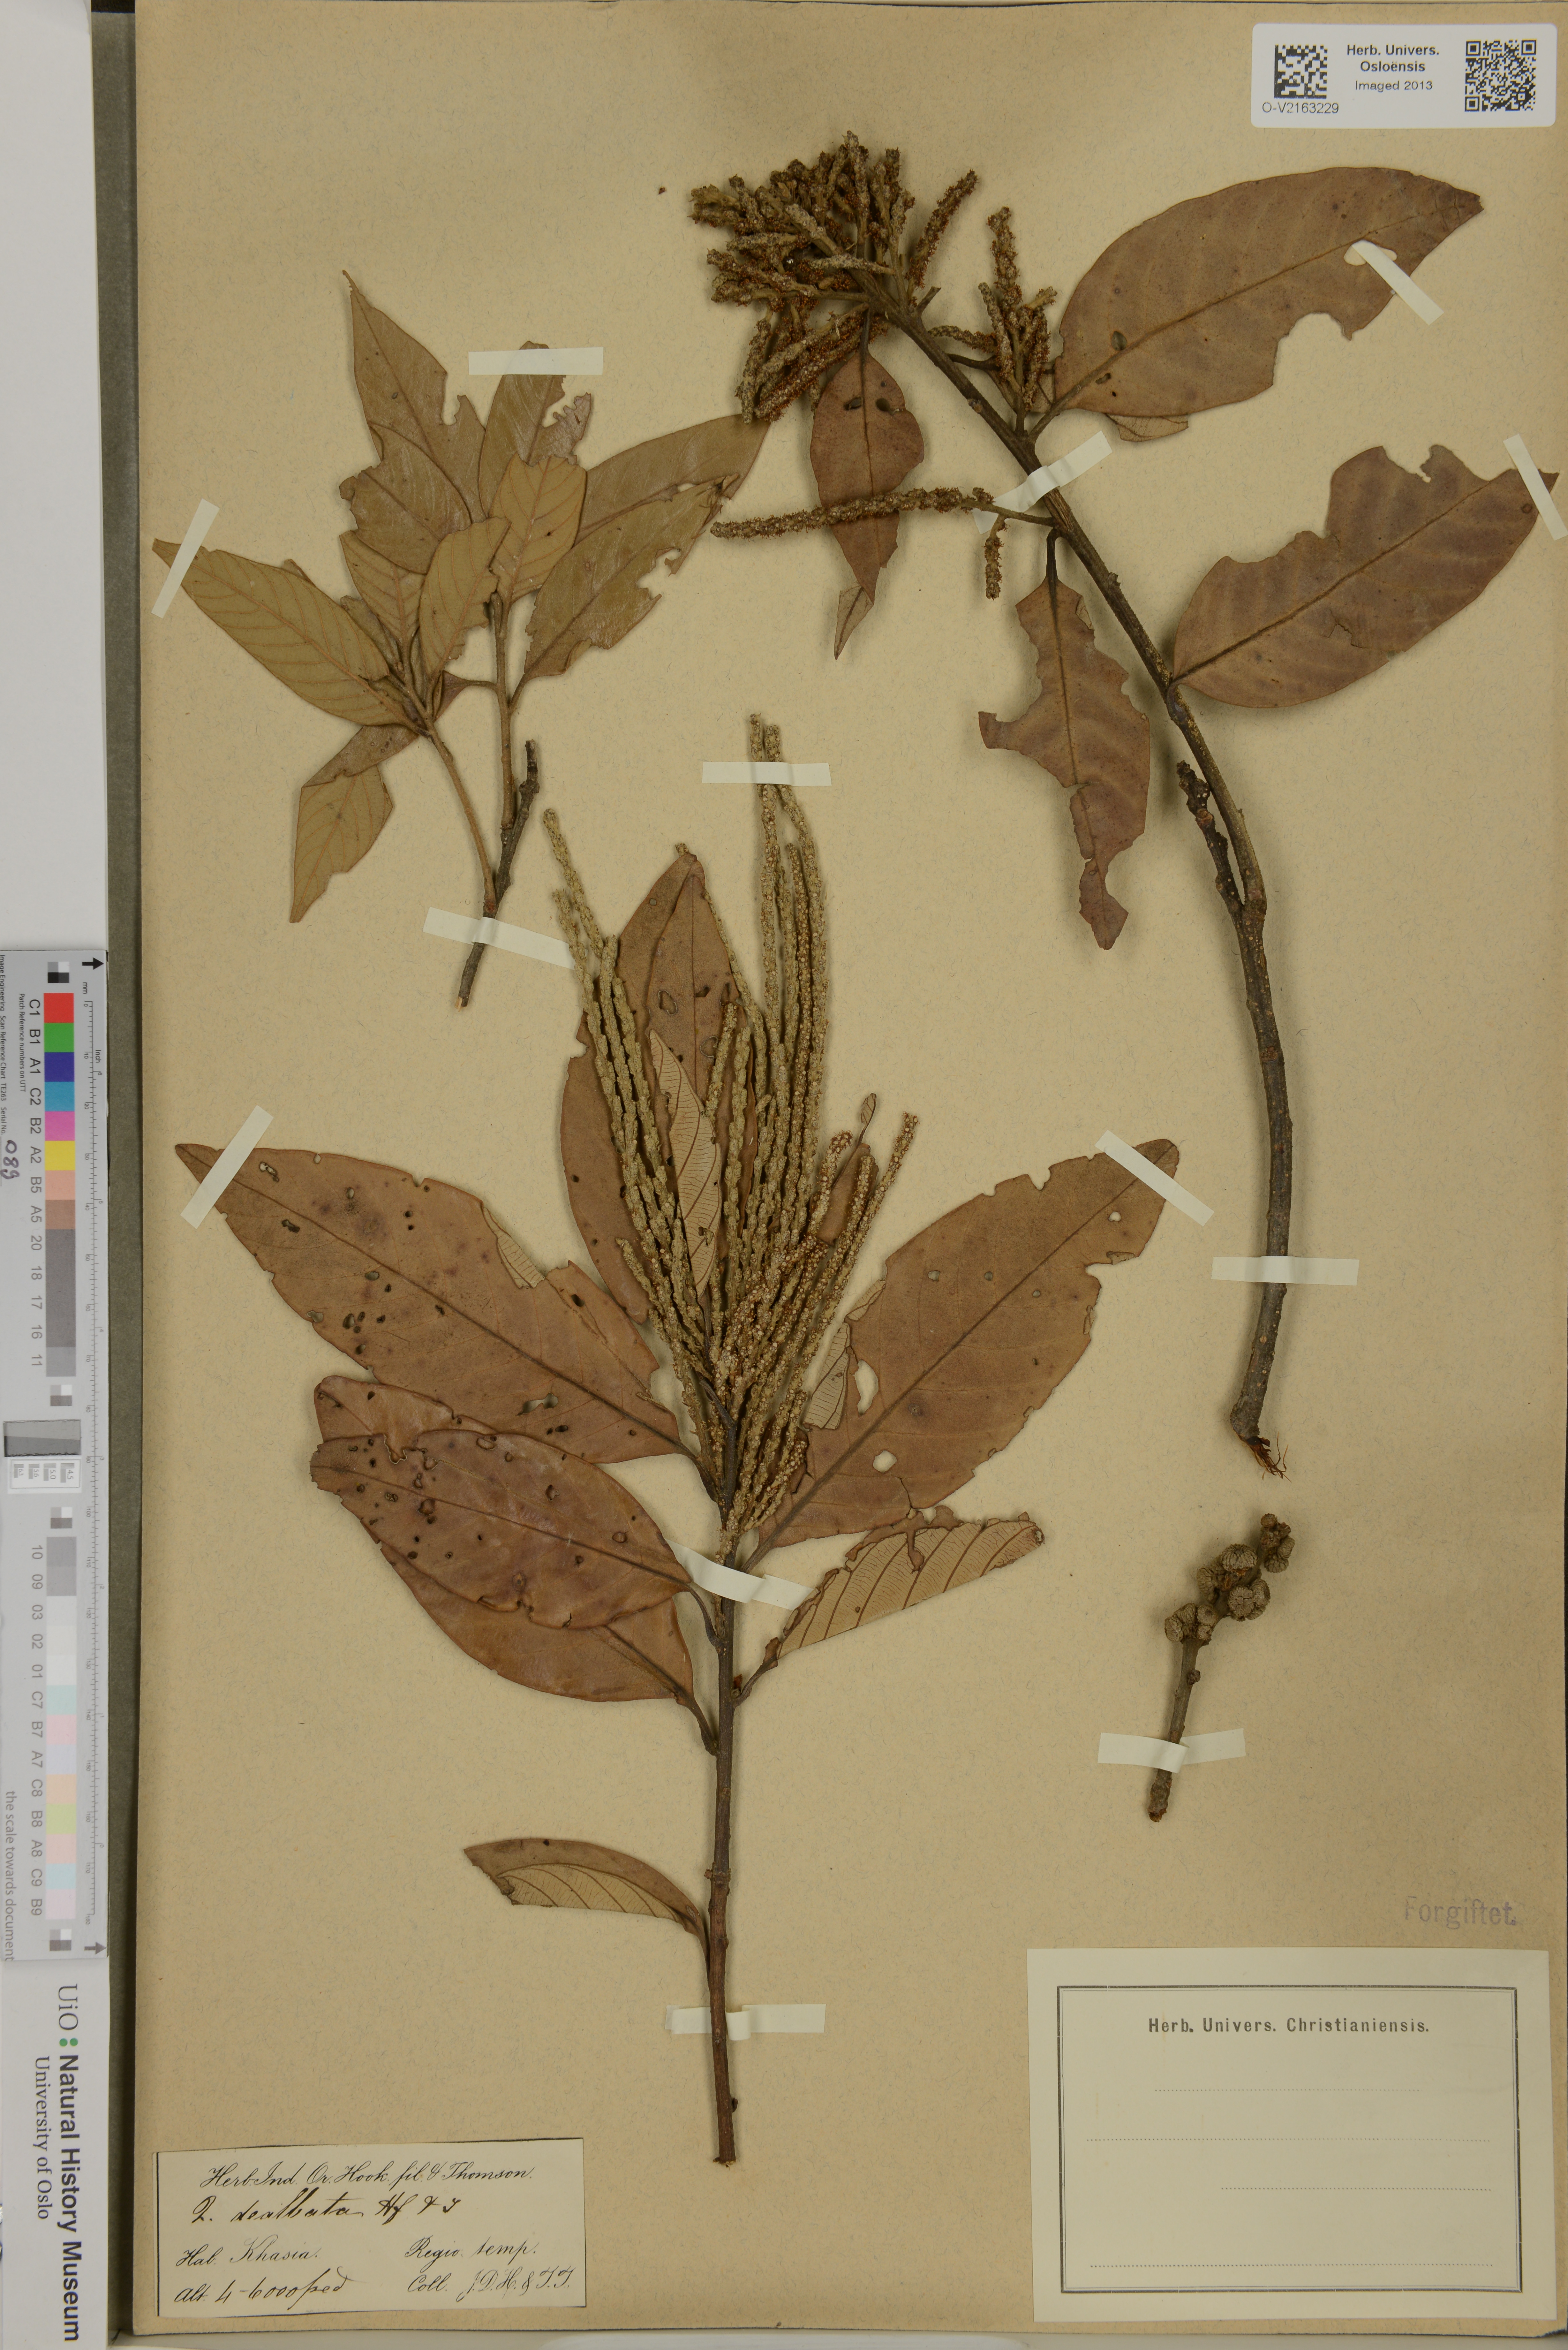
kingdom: Plantae
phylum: Tracheophyta
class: Magnoliopsida
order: Fagales
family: Fagaceae
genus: Quercus
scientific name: Quercus
